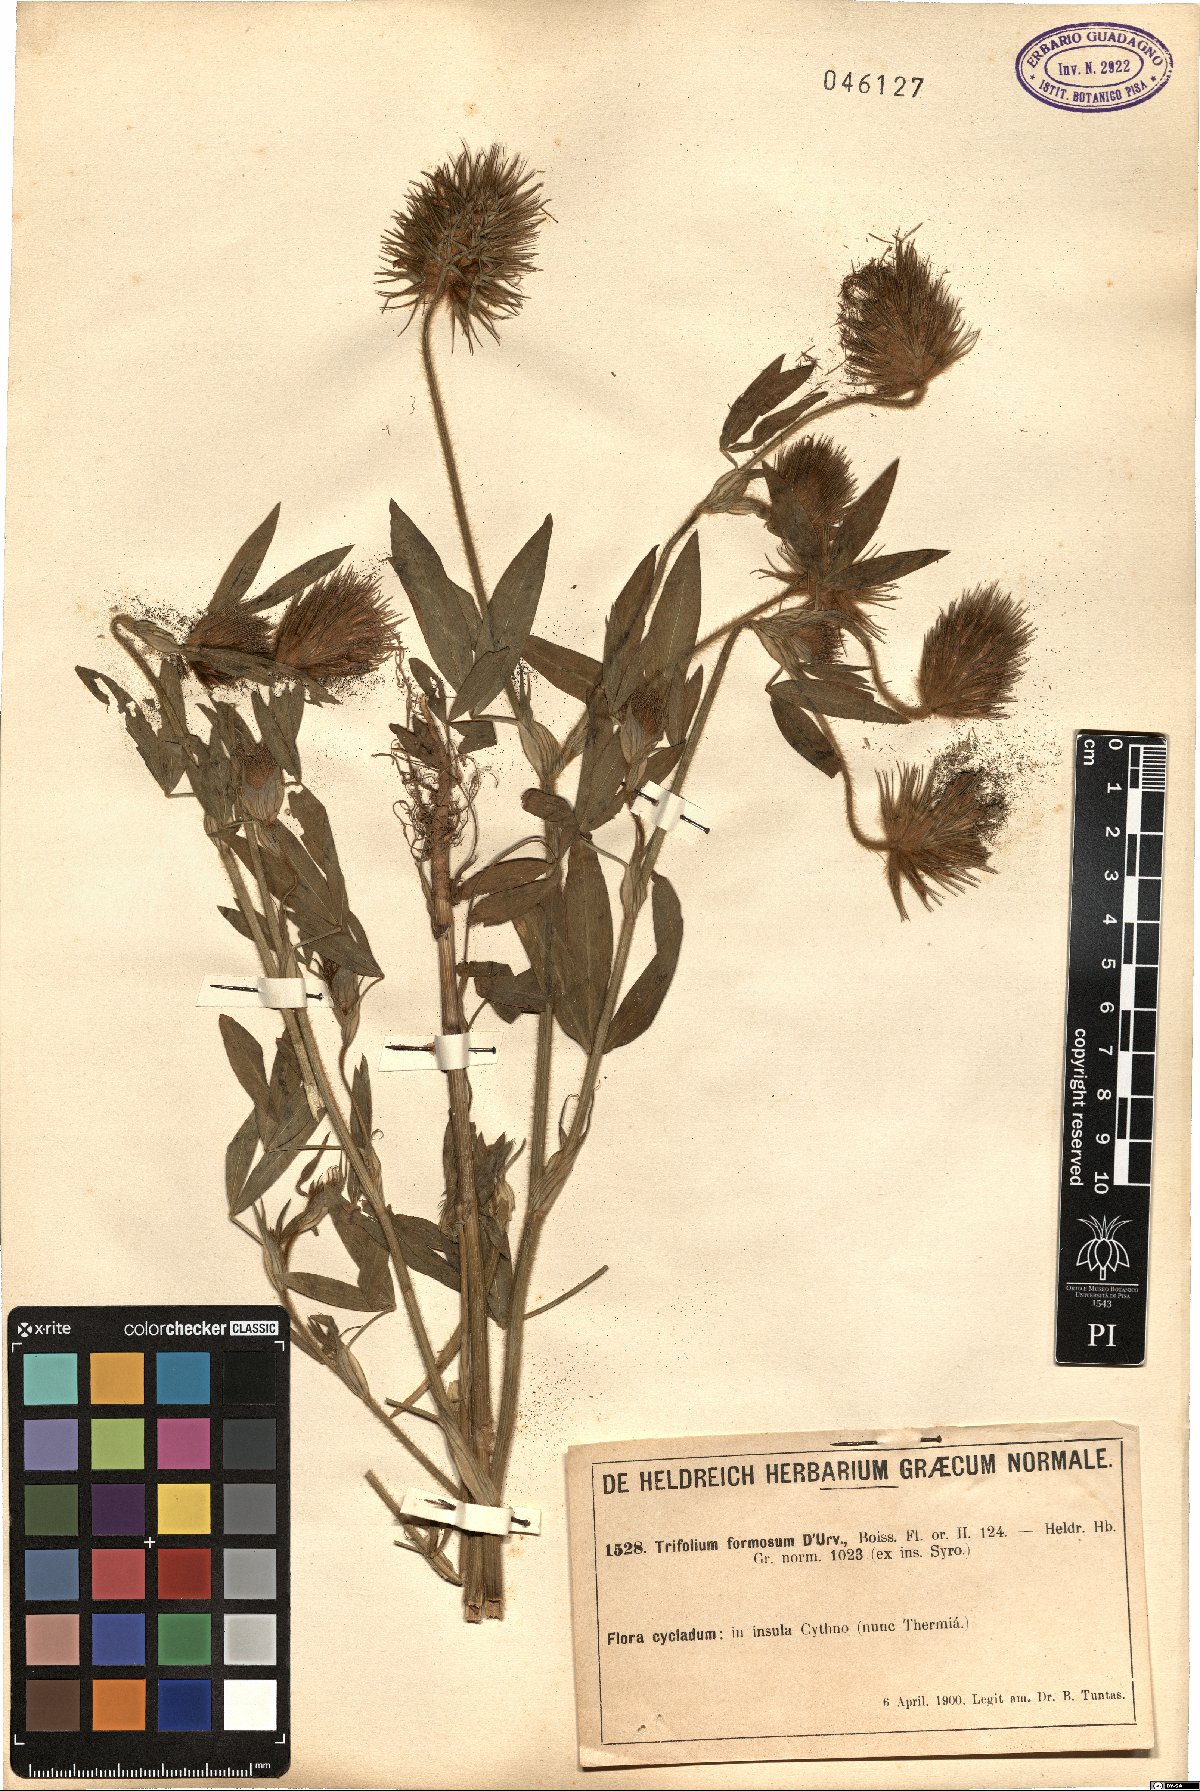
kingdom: Plantae
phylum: Tracheophyta
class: Magnoliopsida
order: Fabales
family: Fabaceae
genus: Trifolium
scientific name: Trifolium
